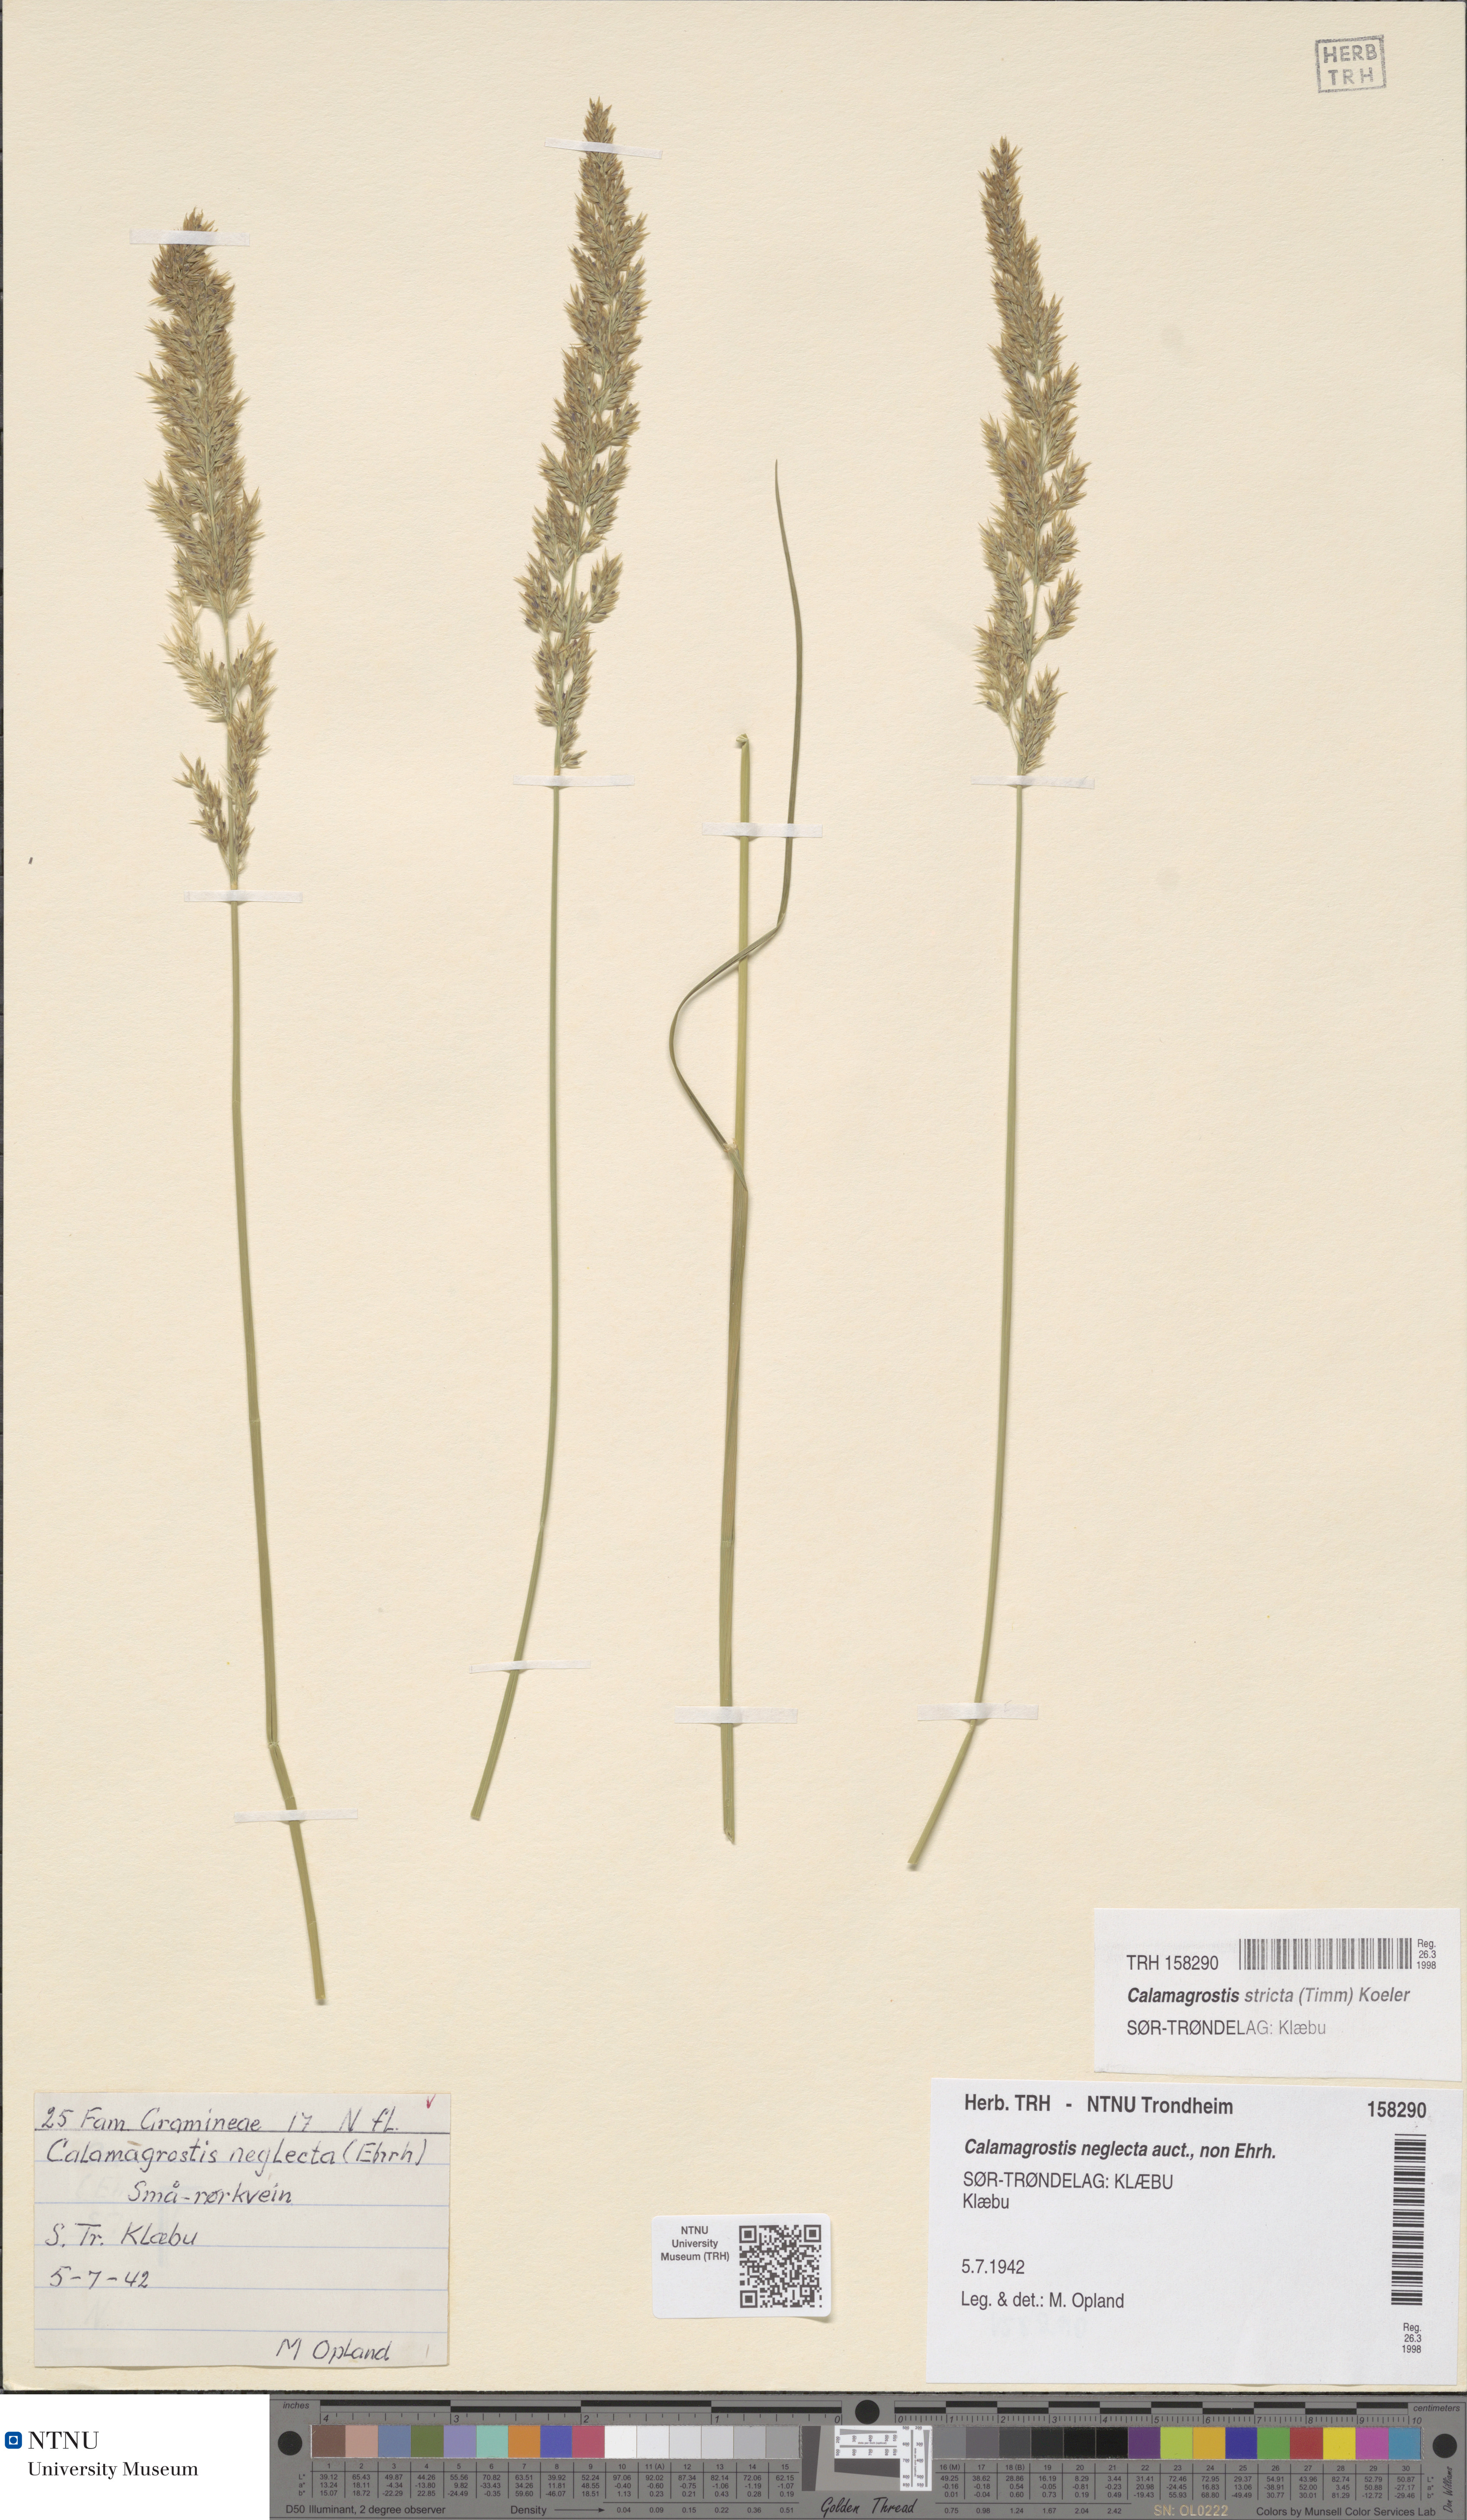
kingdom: Plantae
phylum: Tracheophyta
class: Liliopsida
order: Poales
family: Poaceae
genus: Achnatherum
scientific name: Achnatherum calamagrostis
